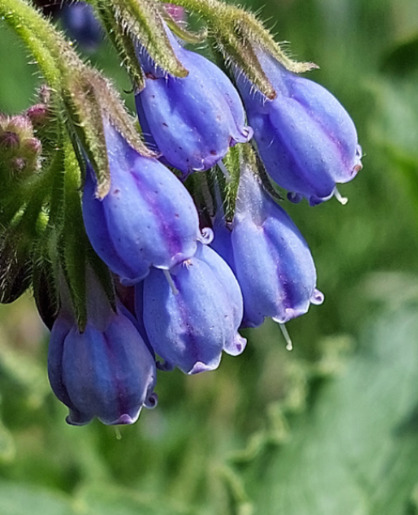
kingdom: Plantae
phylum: Tracheophyta
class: Magnoliopsida
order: Boraginales
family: Boraginaceae
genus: Symphytum
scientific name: Symphytum uplandicum
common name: Foder-kulsukker
